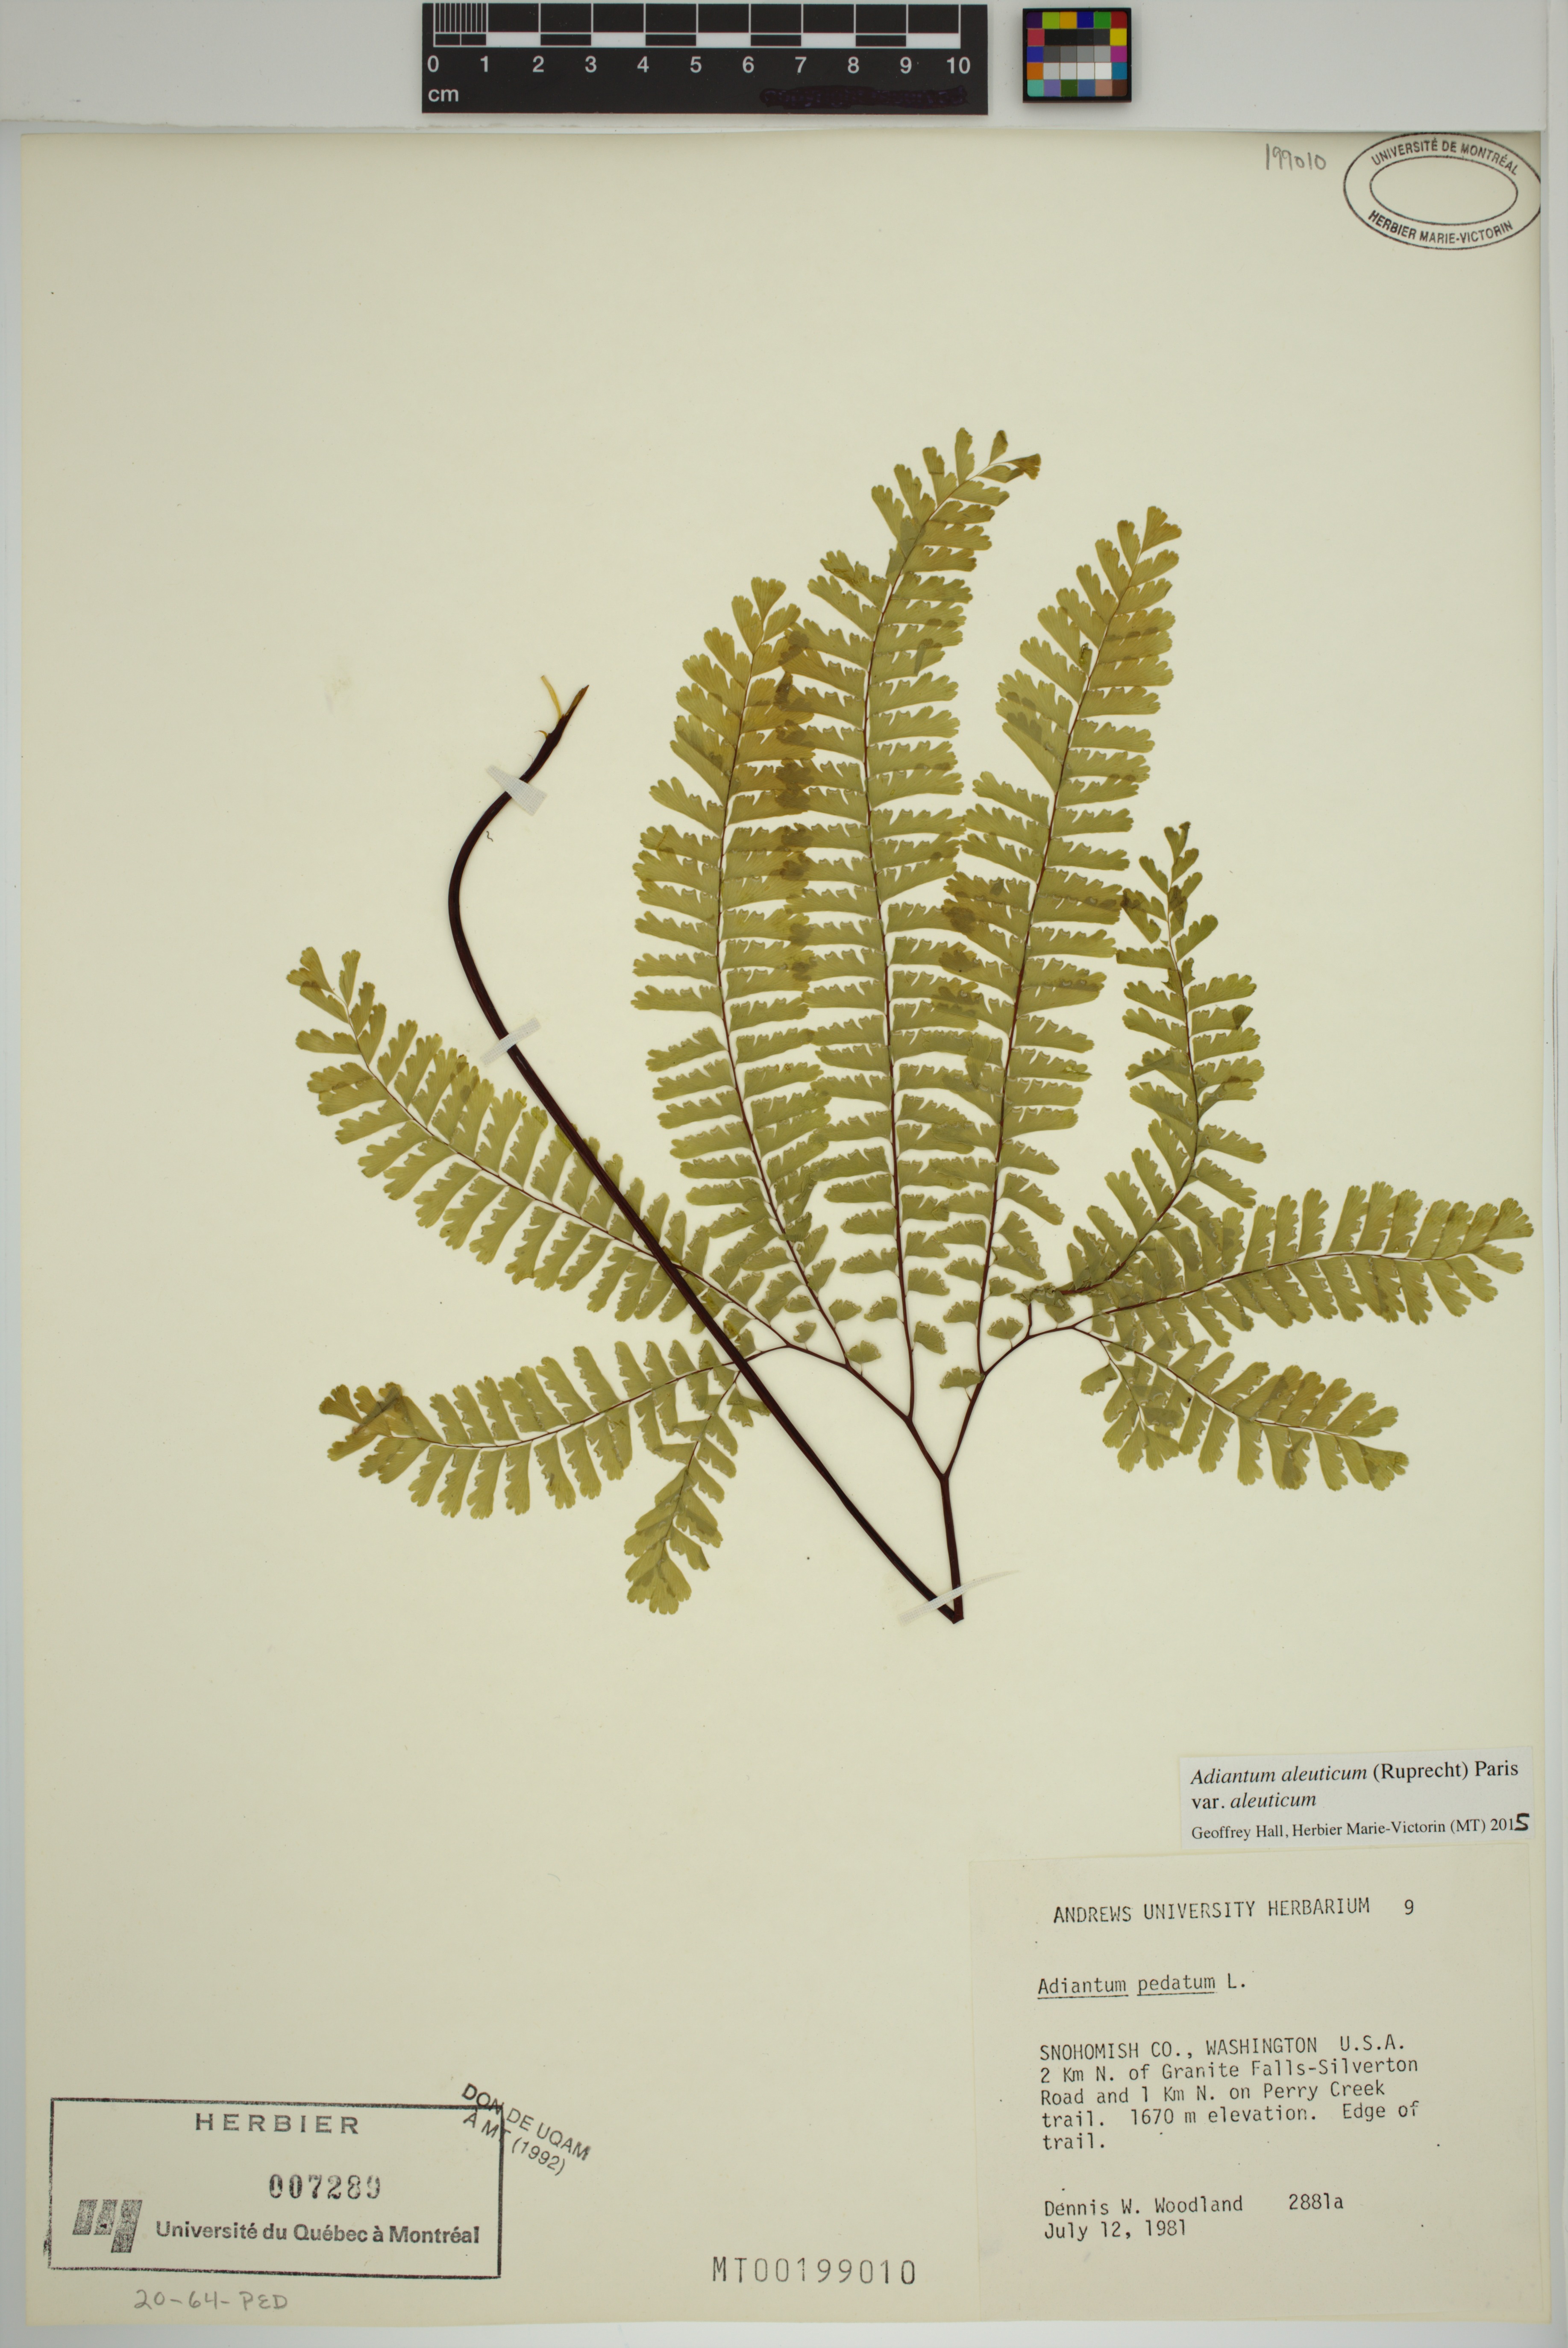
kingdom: Plantae
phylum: Tracheophyta
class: Polypodiopsida
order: Polypodiales
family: Pteridaceae
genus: Adiantum
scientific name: Adiantum aleuticum
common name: Aleutian maidenhair fern
